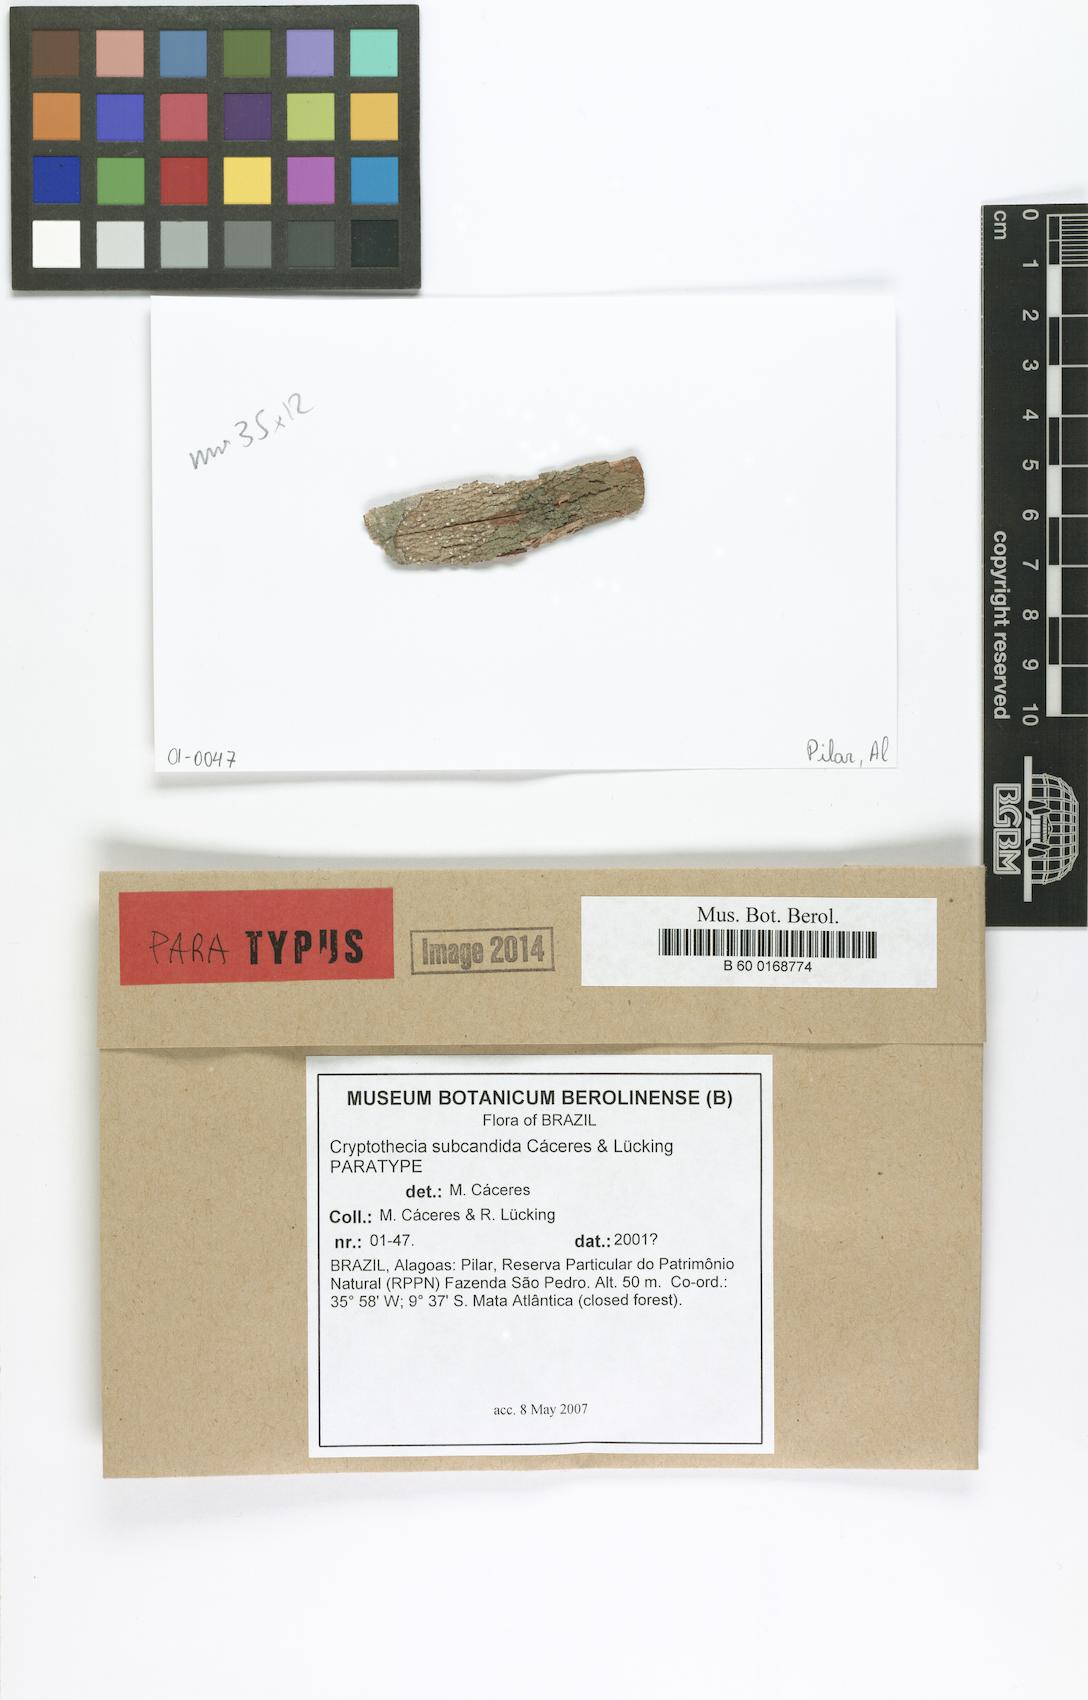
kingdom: Fungi
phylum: Ascomycota
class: Arthoniomycetes
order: Arthoniales
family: Arthoniaceae
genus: Myriostigma
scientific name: Myriostigma subcandidum
